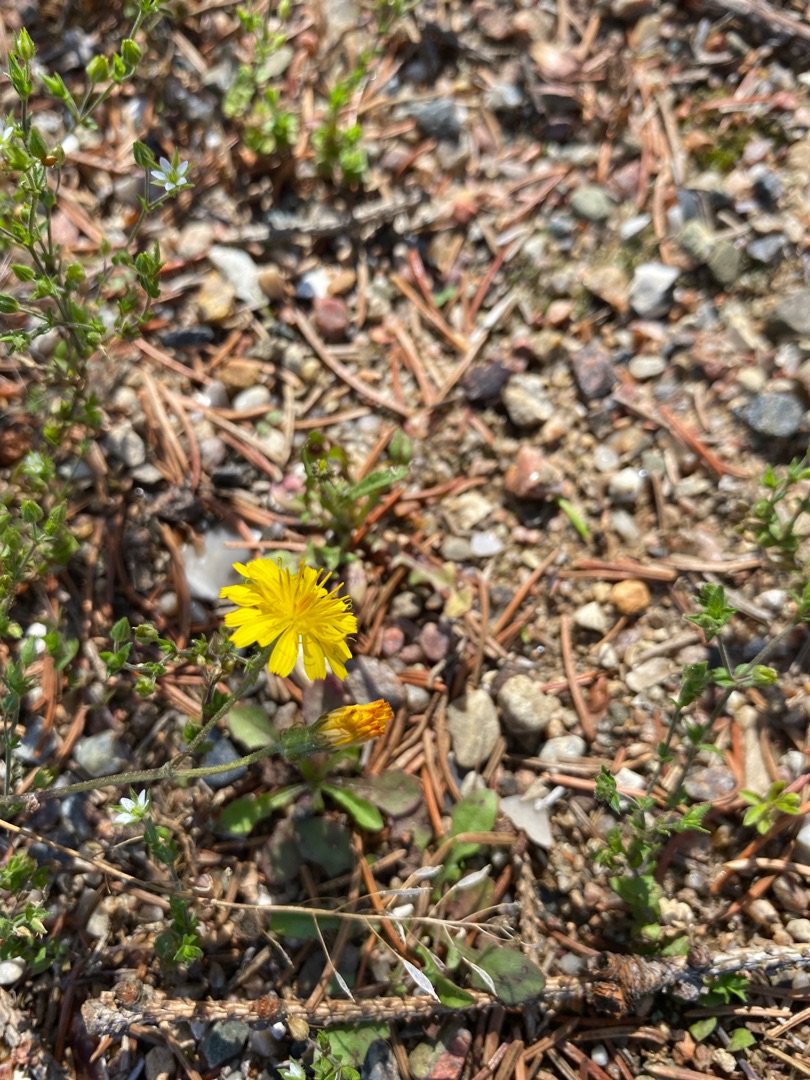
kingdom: Plantae
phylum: Tracheophyta
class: Magnoliopsida
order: Asterales
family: Asteraceae
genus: Crepis
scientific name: Crepis capillaris
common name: Grøn høgeskæg
